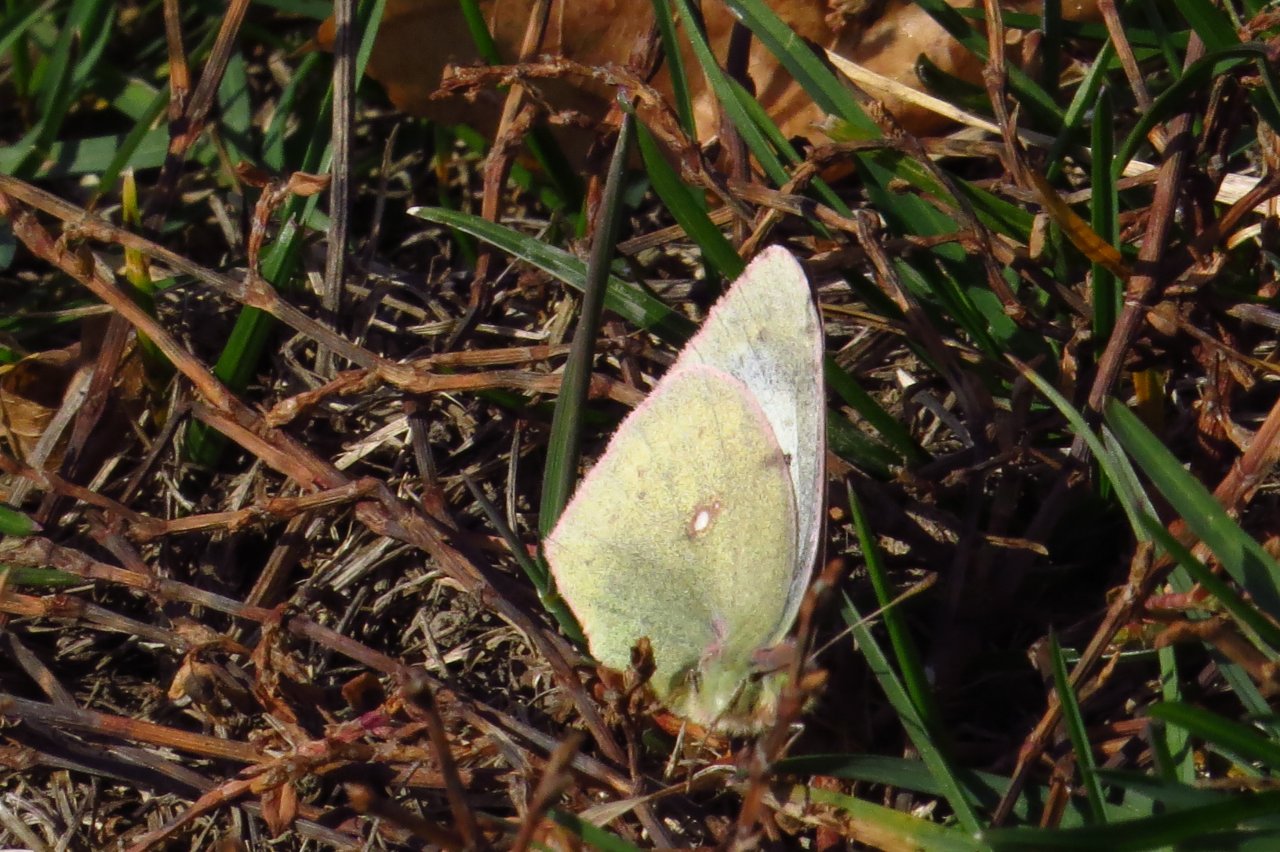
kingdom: Animalia
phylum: Arthropoda
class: Insecta
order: Lepidoptera
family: Pieridae
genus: Colias
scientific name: Colias philodice
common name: Clouded Sulphur
